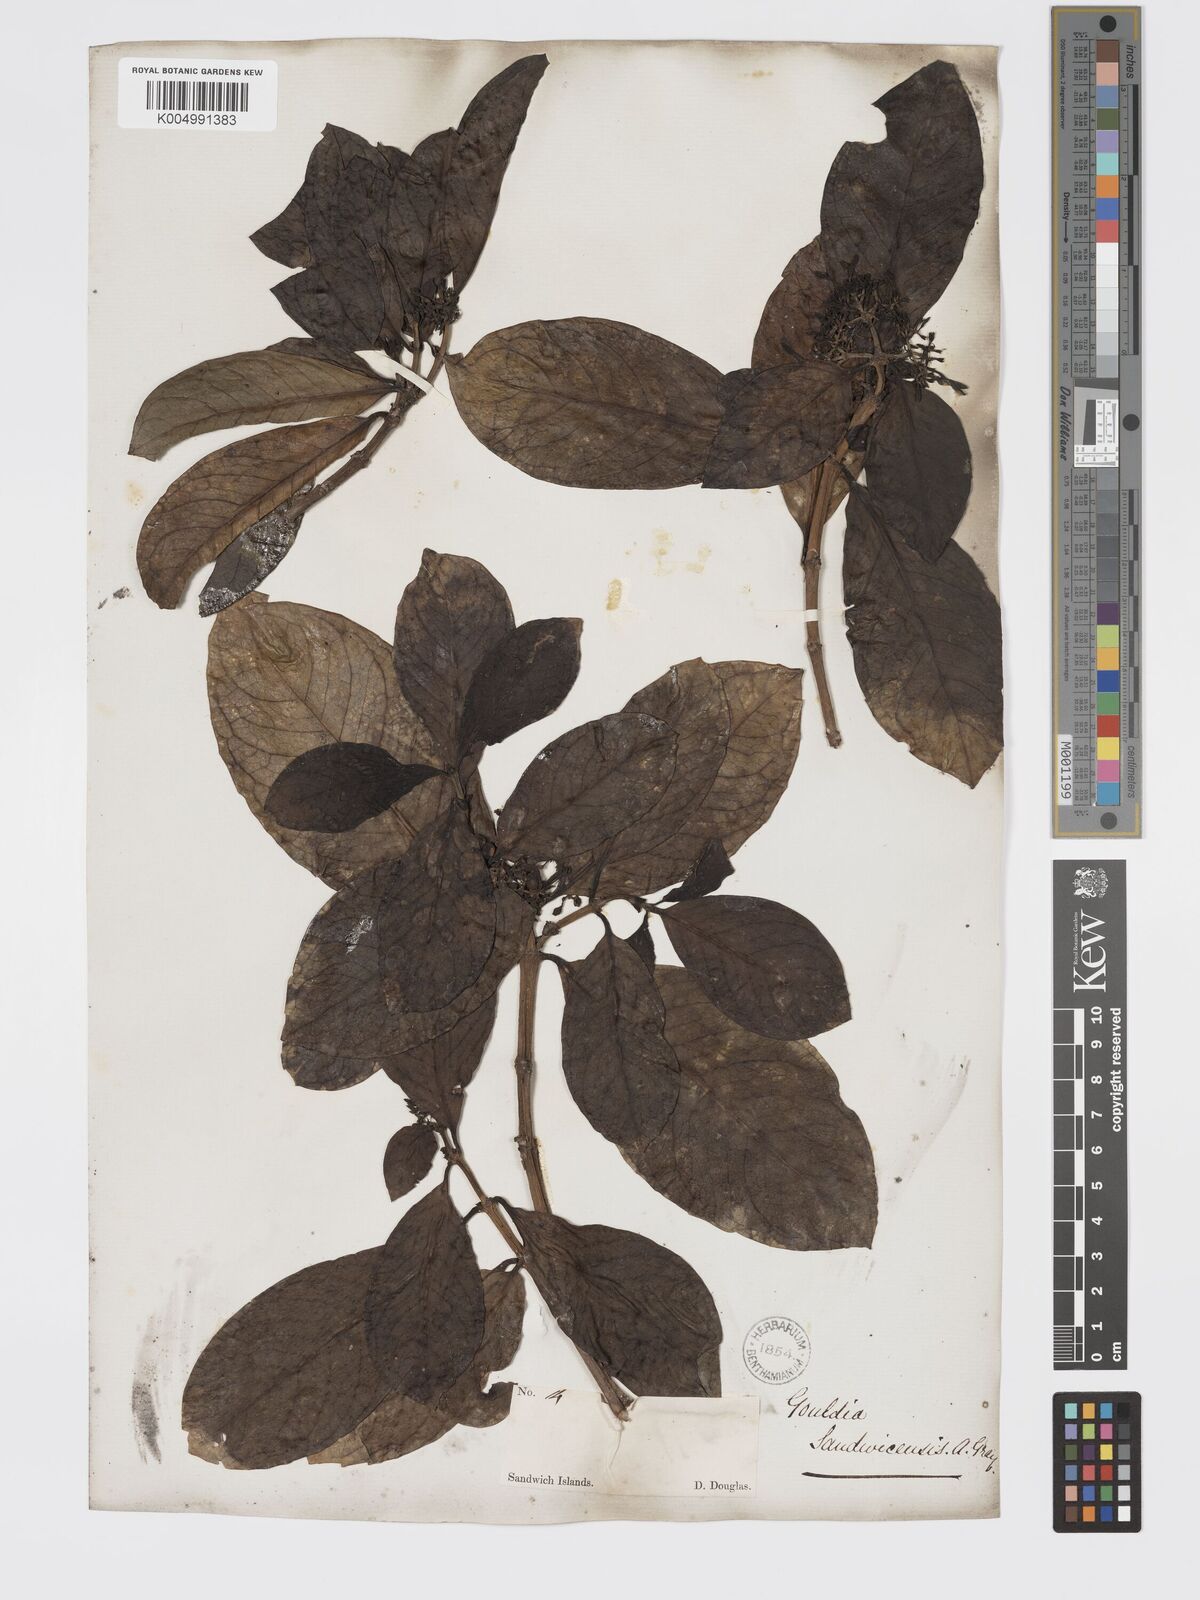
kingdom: Plantae
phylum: Tracheophyta
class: Magnoliopsida
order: Gentianales
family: Rubiaceae
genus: Kadua
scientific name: Kadua affinis
